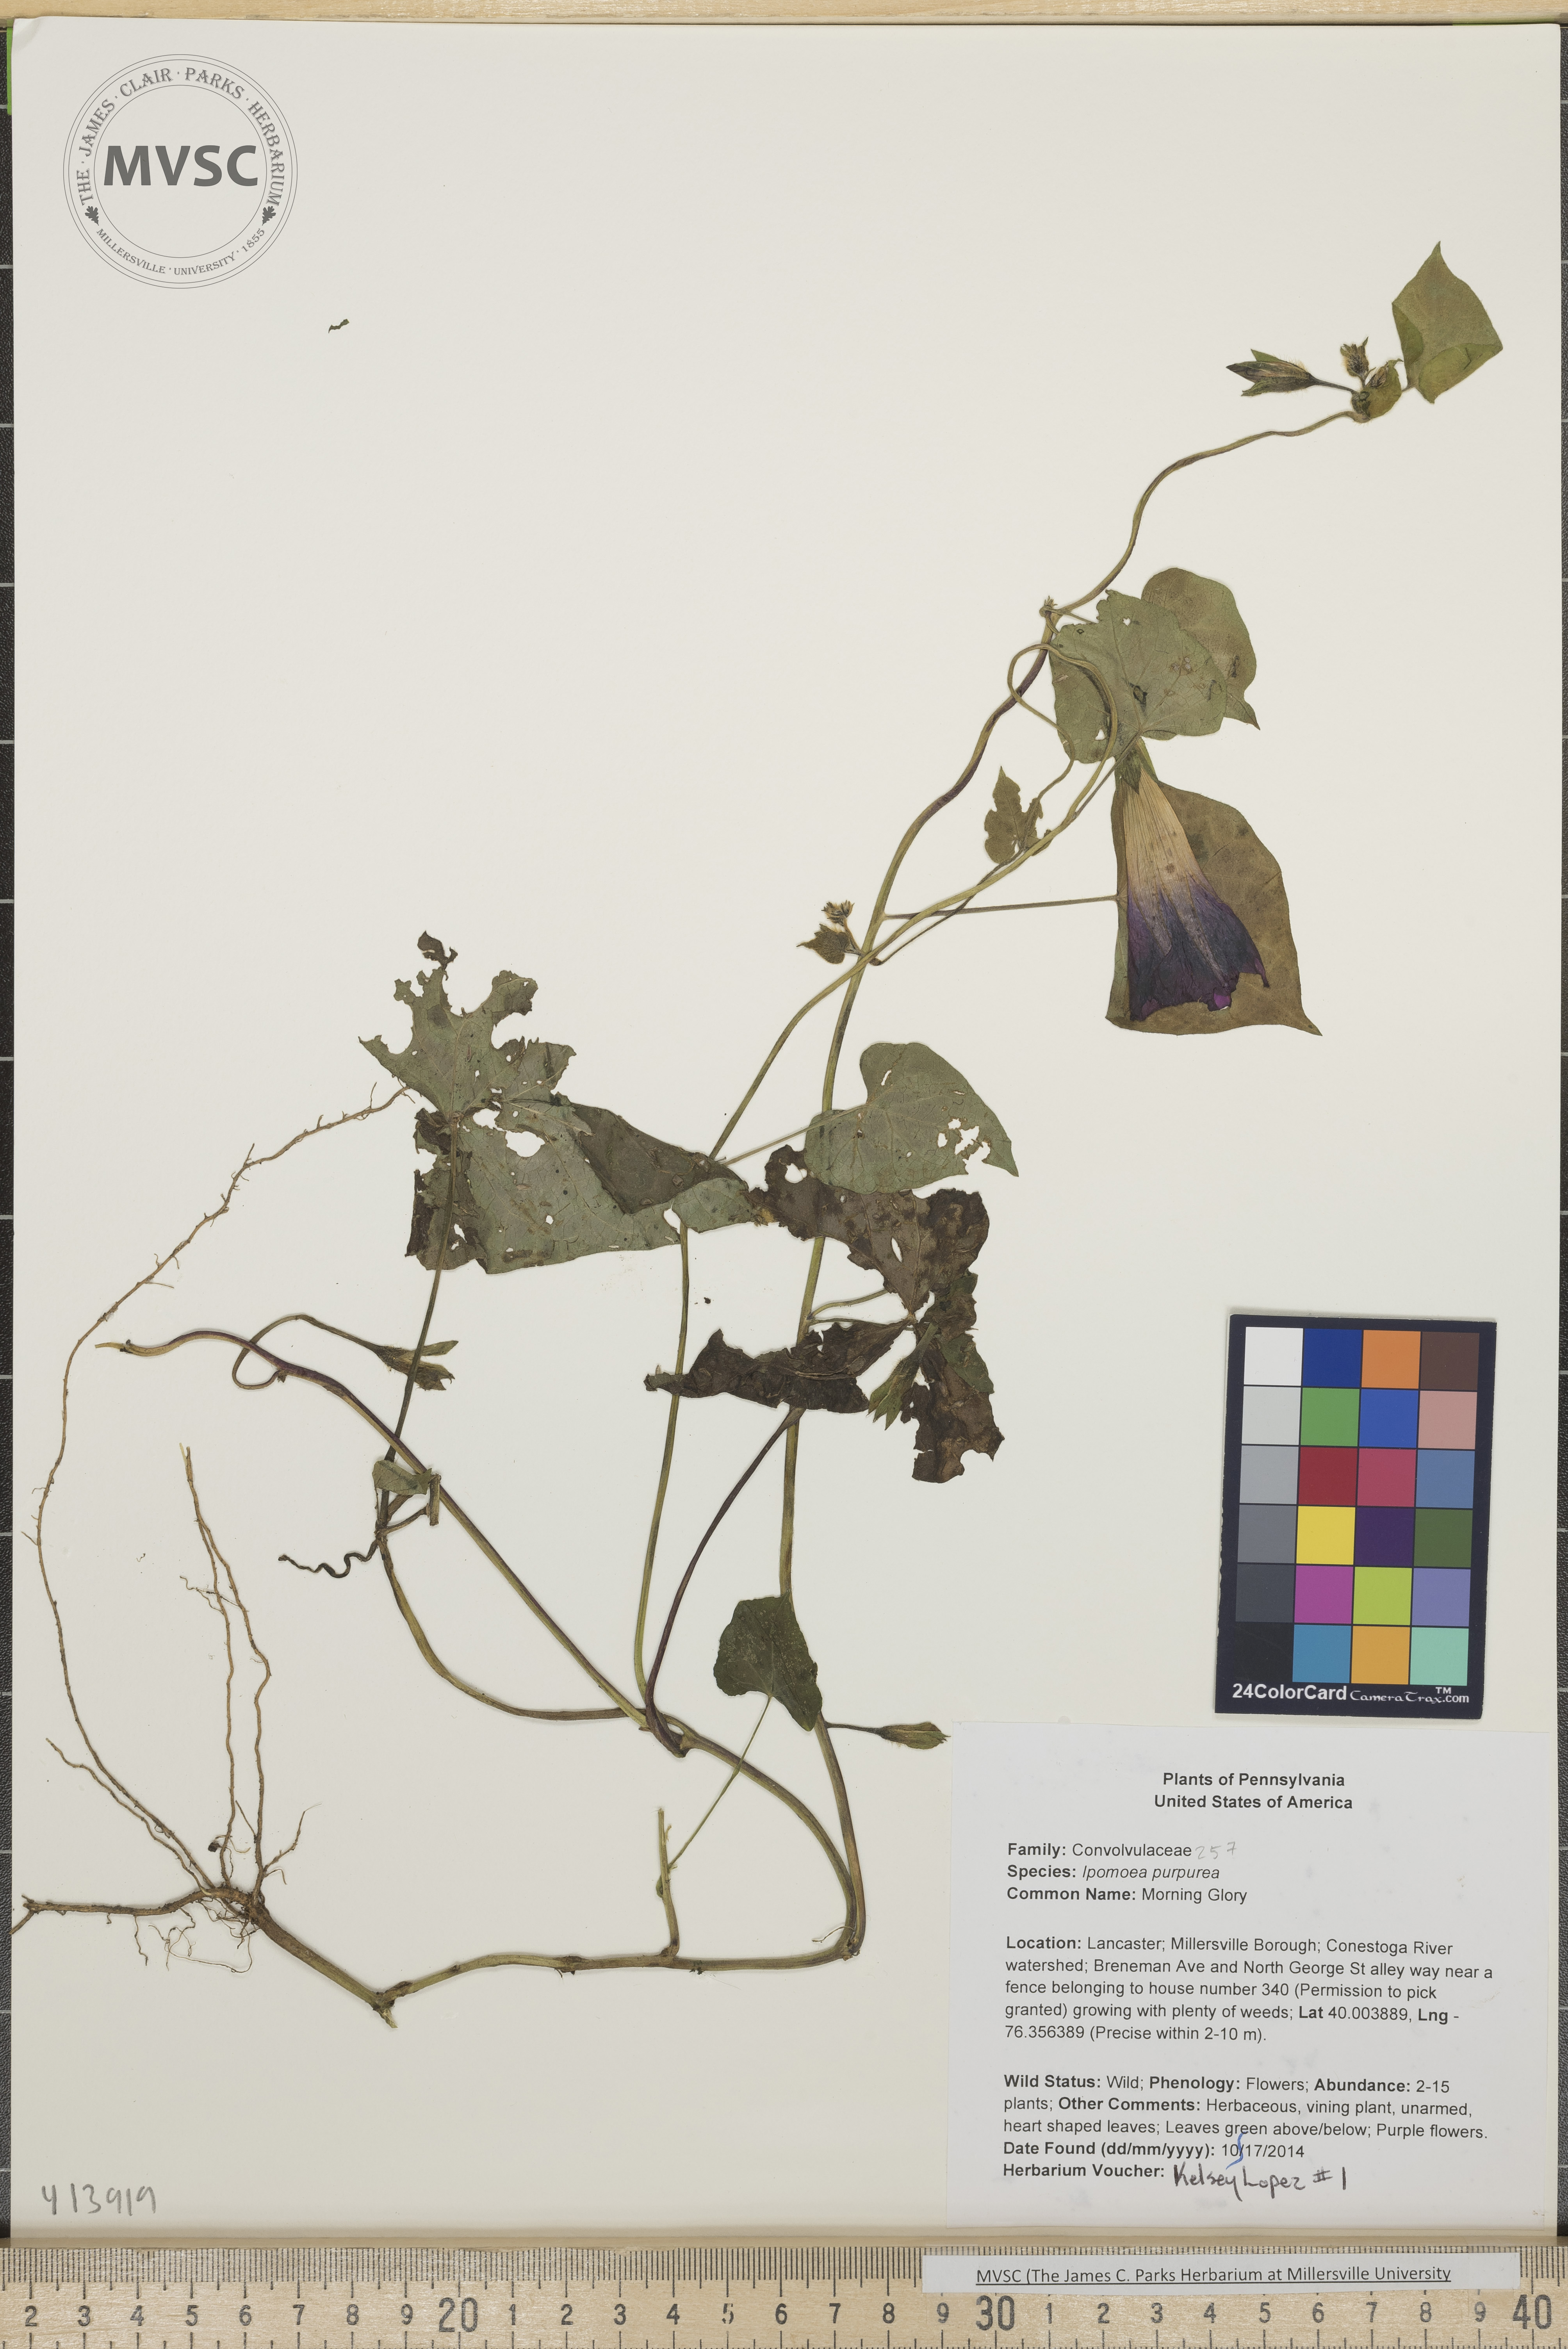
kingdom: Plantae
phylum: Tracheophyta
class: Magnoliopsida
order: Solanales
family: Convolvulaceae
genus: Ipomoea
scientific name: Ipomoea purpurea
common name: Morning Glory
